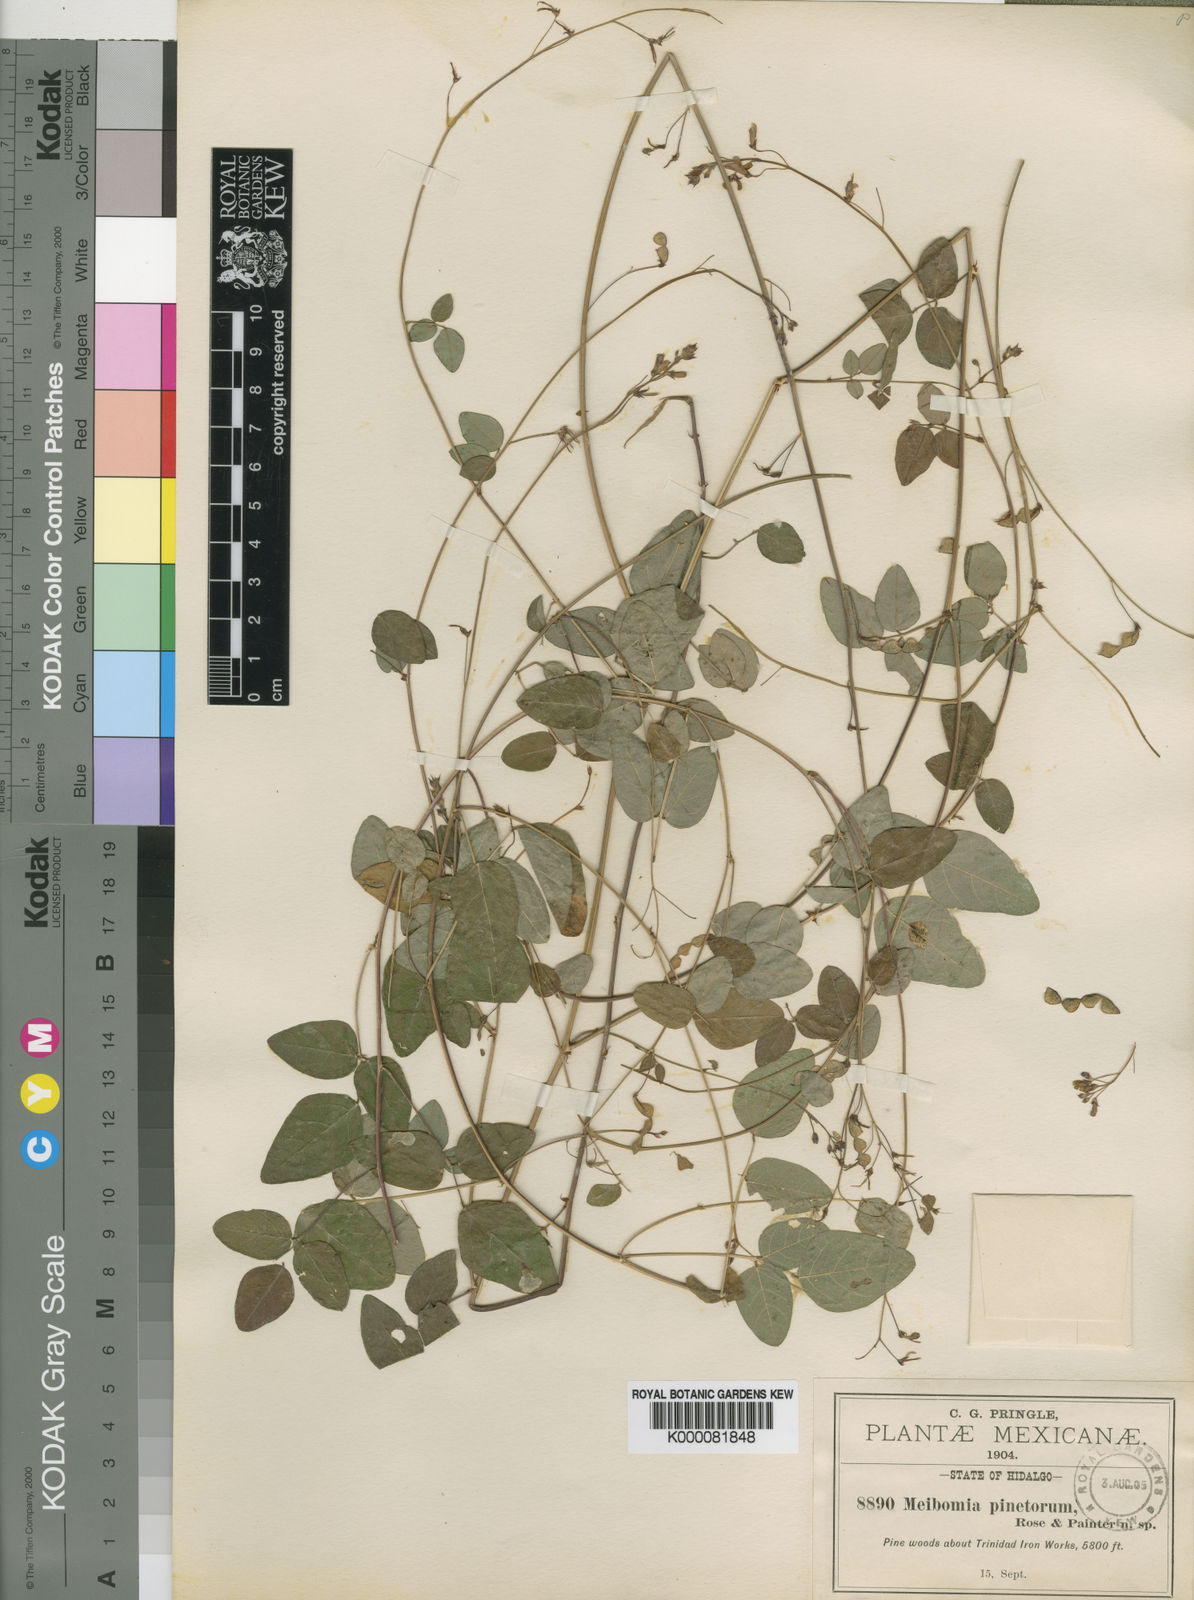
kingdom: Plantae
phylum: Tracheophyta
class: Magnoliopsida
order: Fabales
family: Fabaceae
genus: Desmodium
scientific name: Desmodium leptoclados
